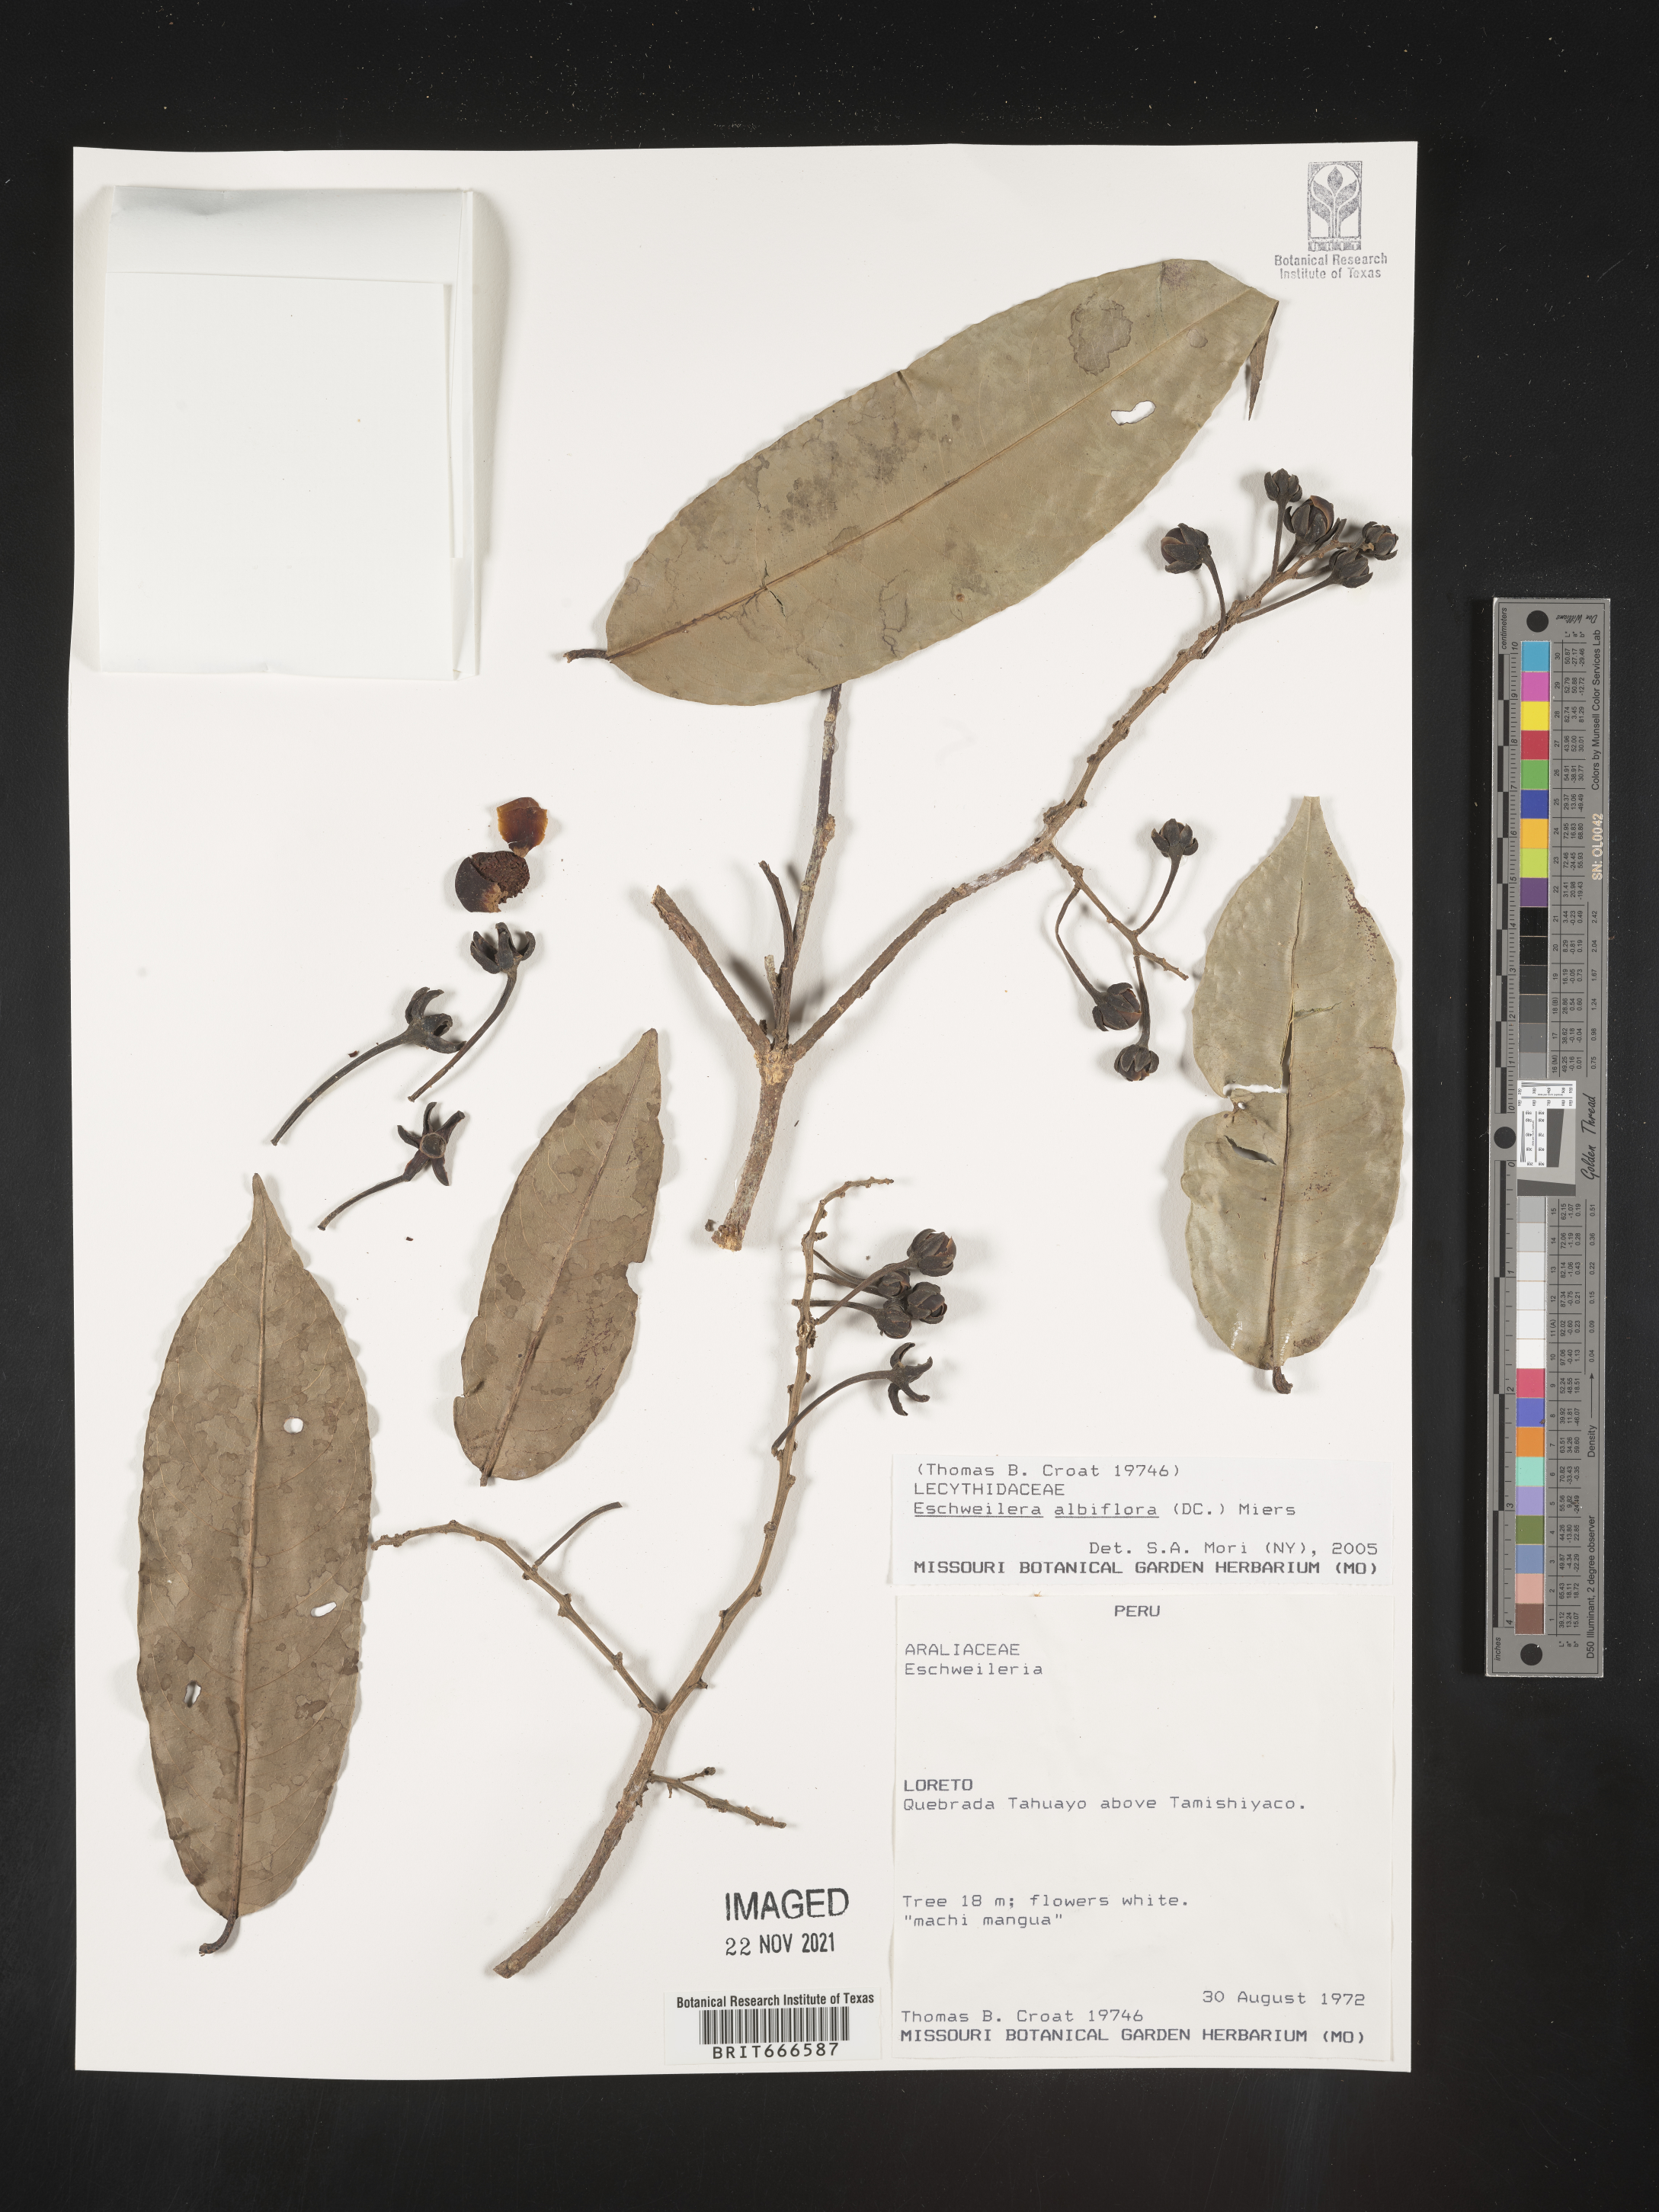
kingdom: Plantae
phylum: Tracheophyta
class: Magnoliopsida
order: Ericales
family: Lecythidaceae
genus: Eschweilera
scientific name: Eschweilera
